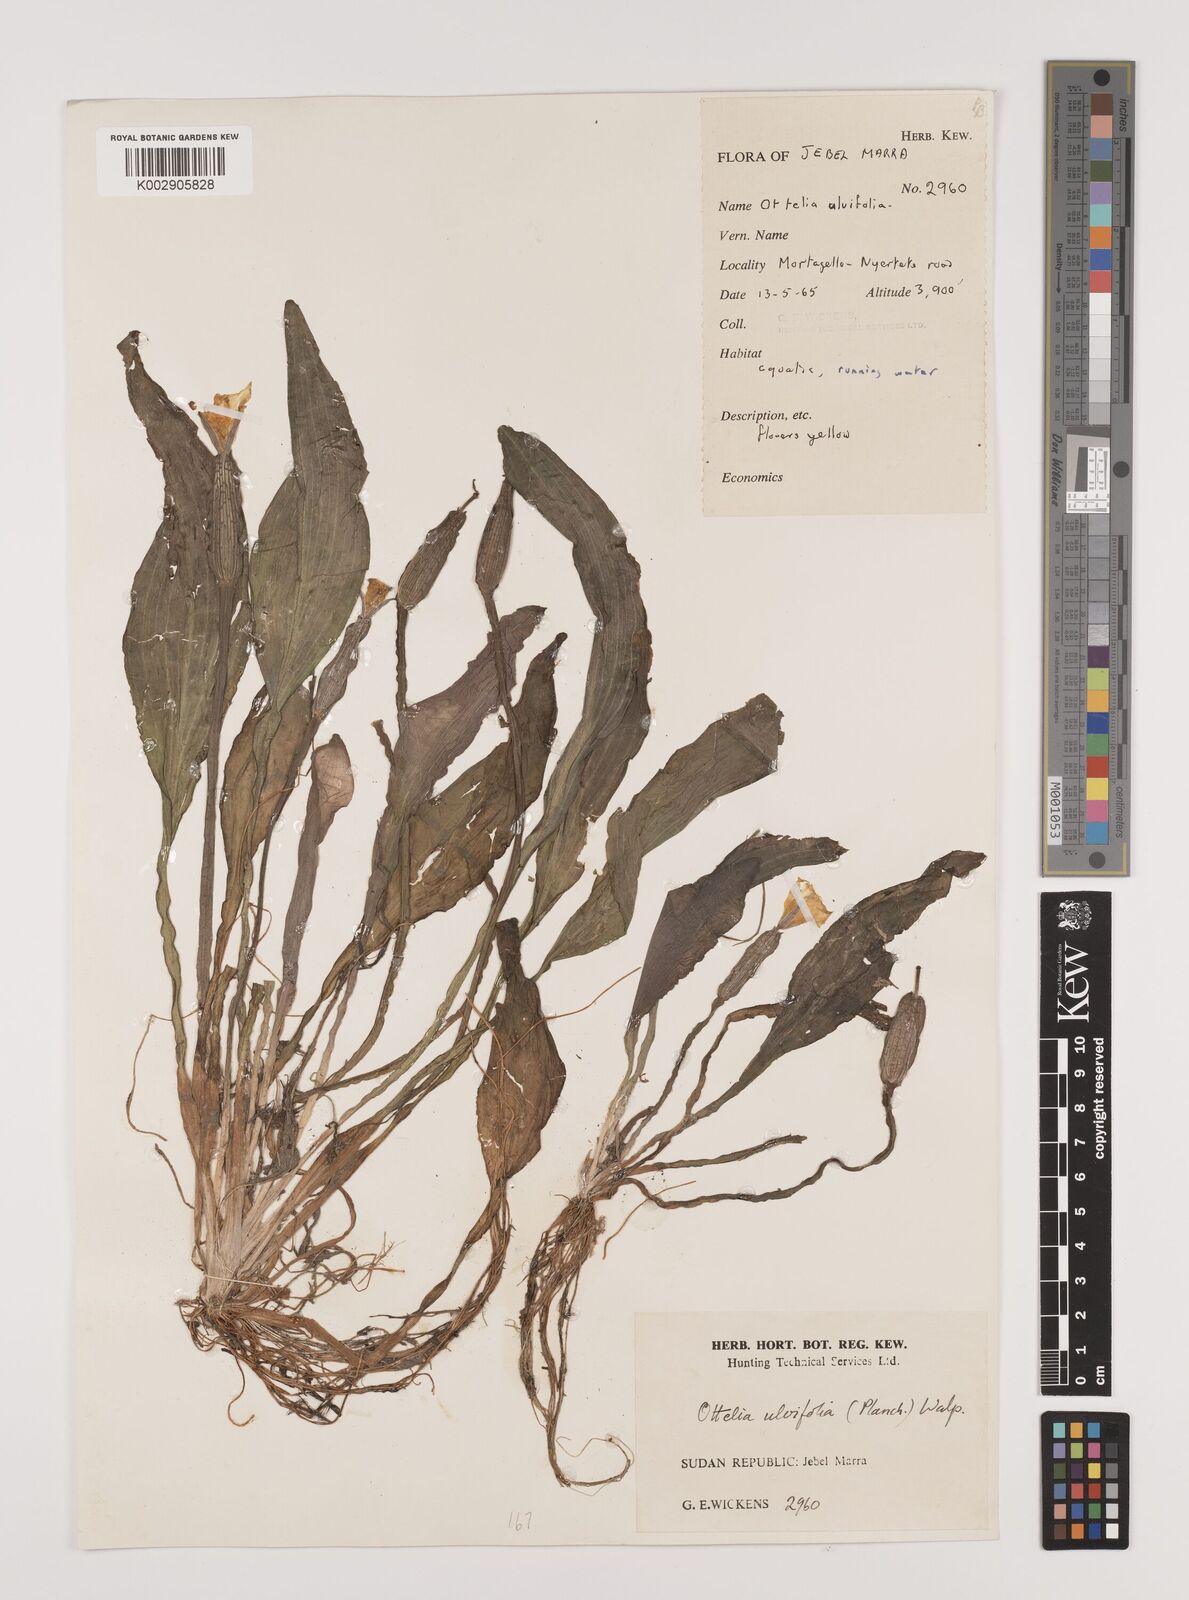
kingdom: Plantae
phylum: Tracheophyta
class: Liliopsida
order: Alismatales
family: Hydrocharitaceae
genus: Ottelia
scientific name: Ottelia ulvifolia
